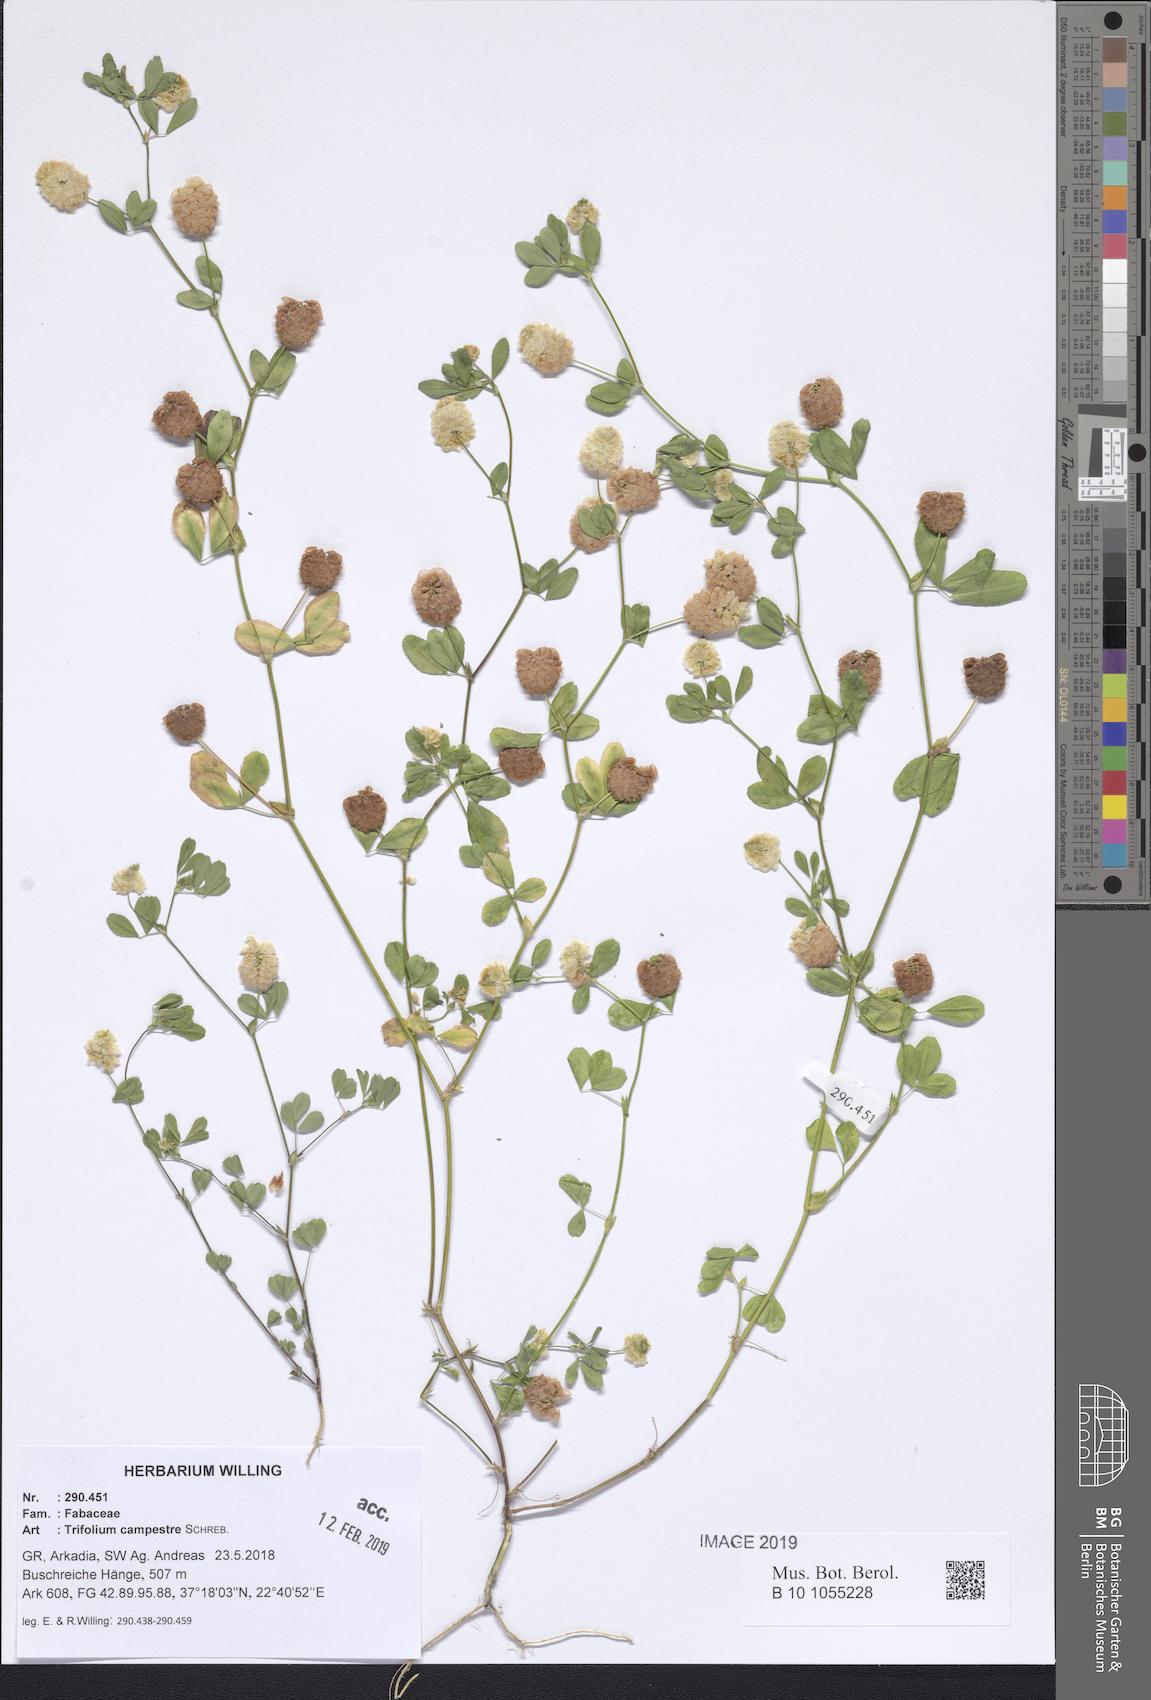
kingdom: Plantae
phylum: Tracheophyta
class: Magnoliopsida
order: Fabales
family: Fabaceae
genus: Trifolium
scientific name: Trifolium campestre
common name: Field clover
